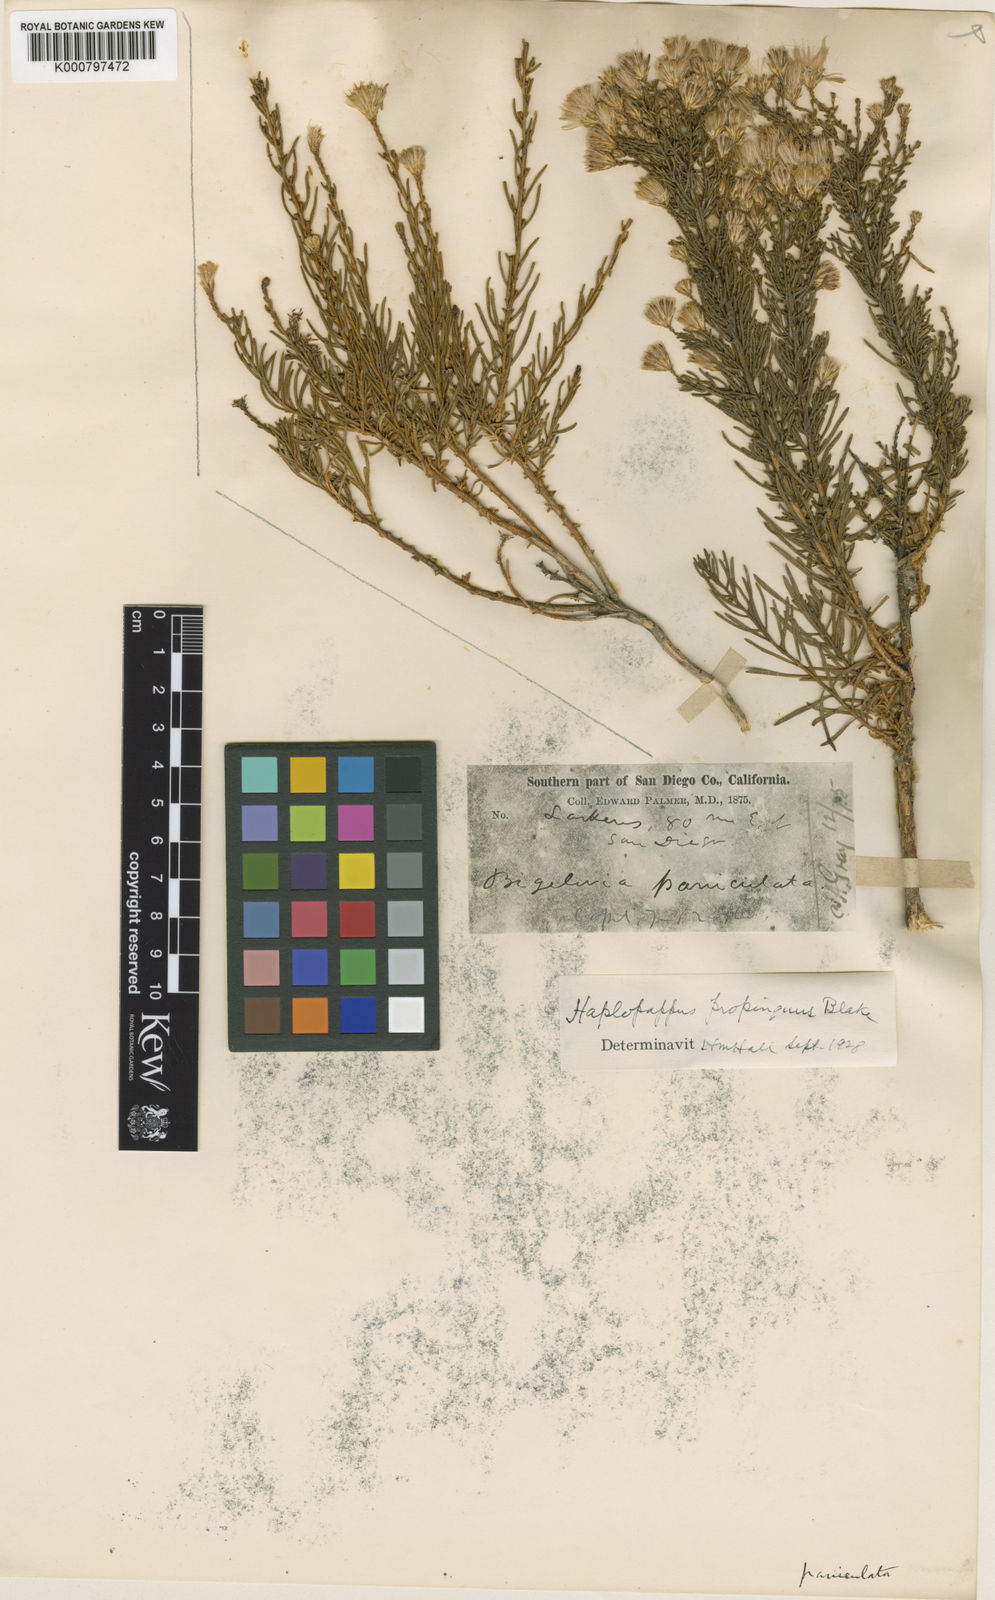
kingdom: Plantae
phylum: Tracheophyta
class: Magnoliopsida
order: Asterales
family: Asteraceae
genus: Ericameria
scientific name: Ericameria brachylepis
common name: Boundary goldenbush
